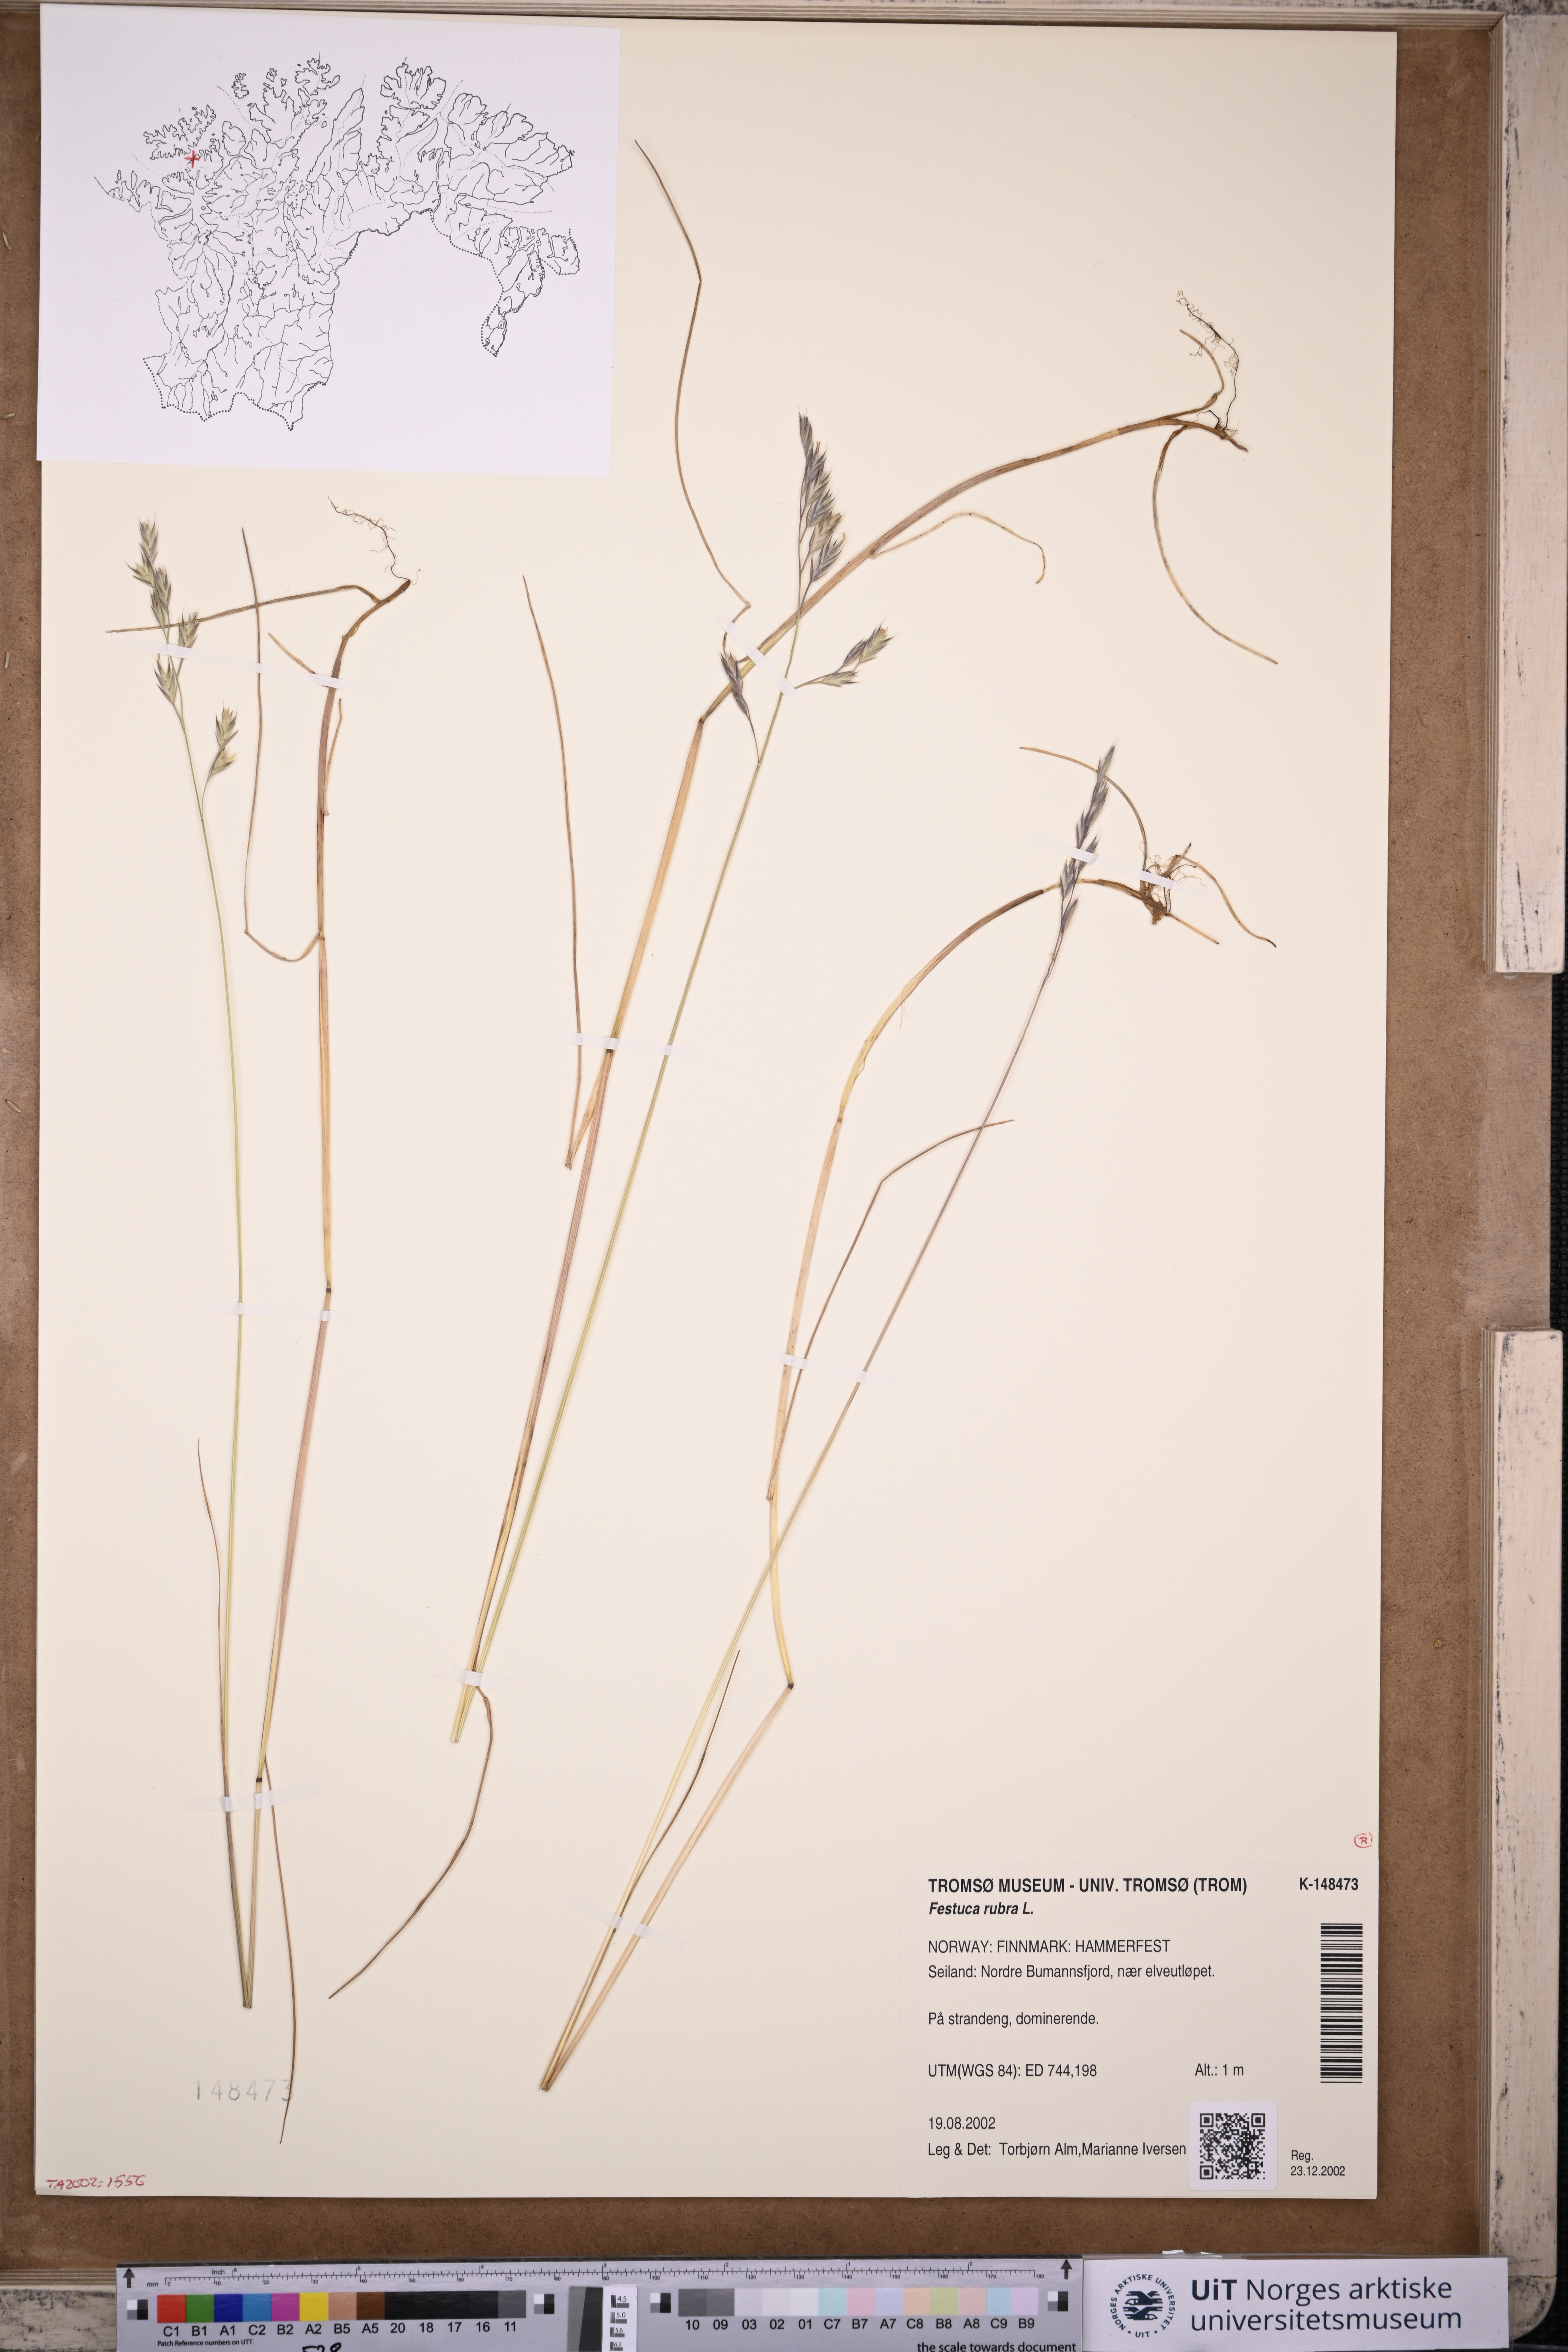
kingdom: Plantae
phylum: Tracheophyta
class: Liliopsida
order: Poales
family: Poaceae
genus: Festuca
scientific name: Festuca rubra
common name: Red fescue
